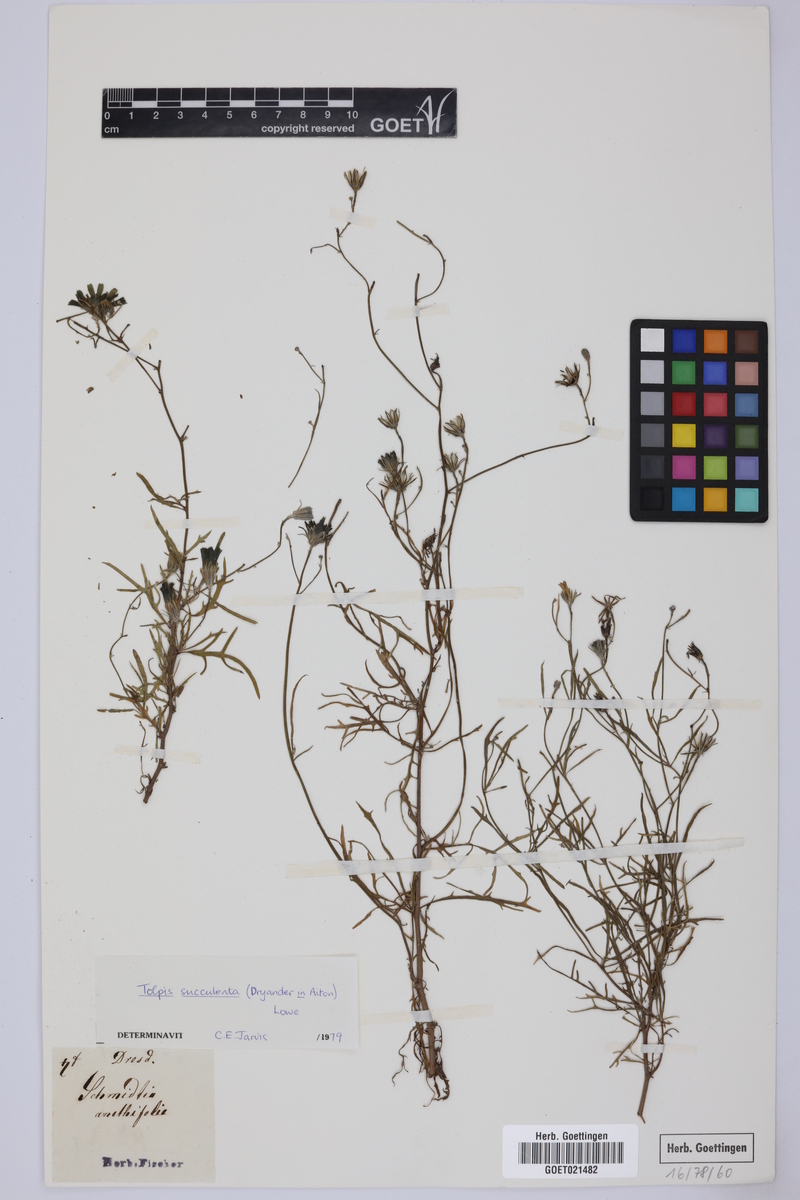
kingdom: Plantae
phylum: Tracheophyta
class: Magnoliopsida
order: Asterales
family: Asteraceae
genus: Tolpis
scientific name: Tolpis succulenta
